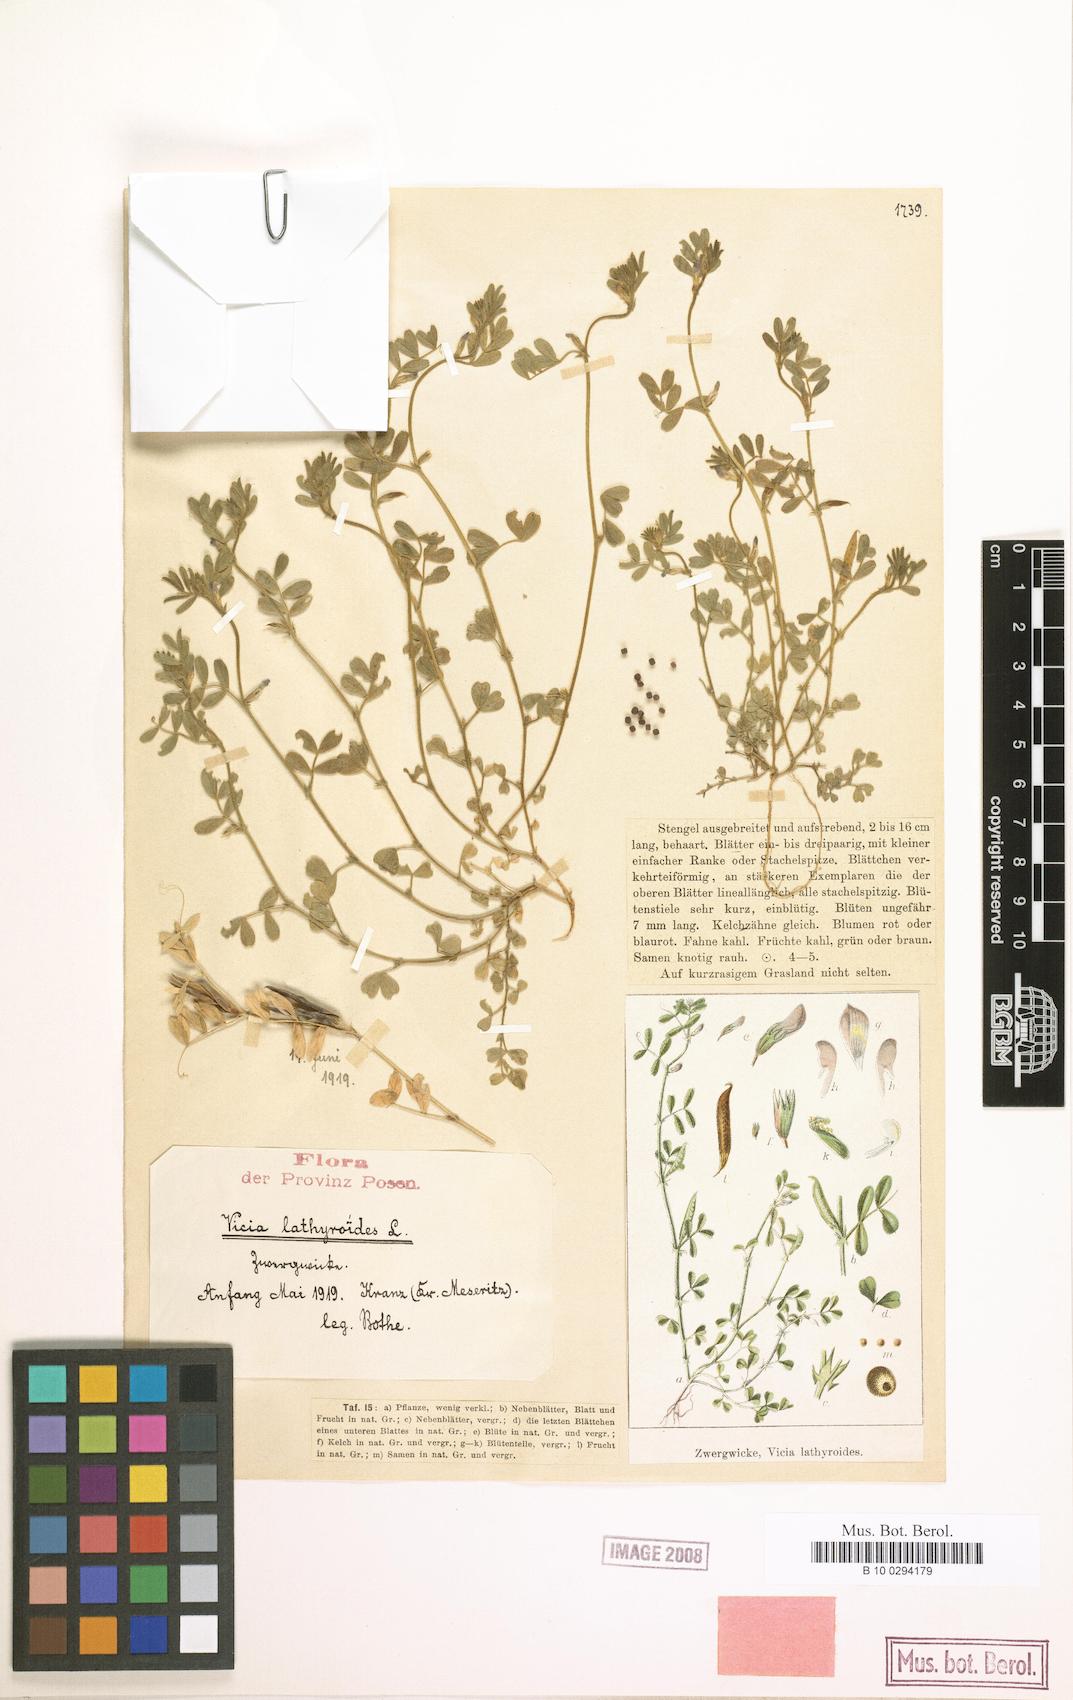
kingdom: Plantae
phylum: Tracheophyta
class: Magnoliopsida
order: Fabales
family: Fabaceae
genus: Vicia
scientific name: Vicia lathyroides
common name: Spring vetch
